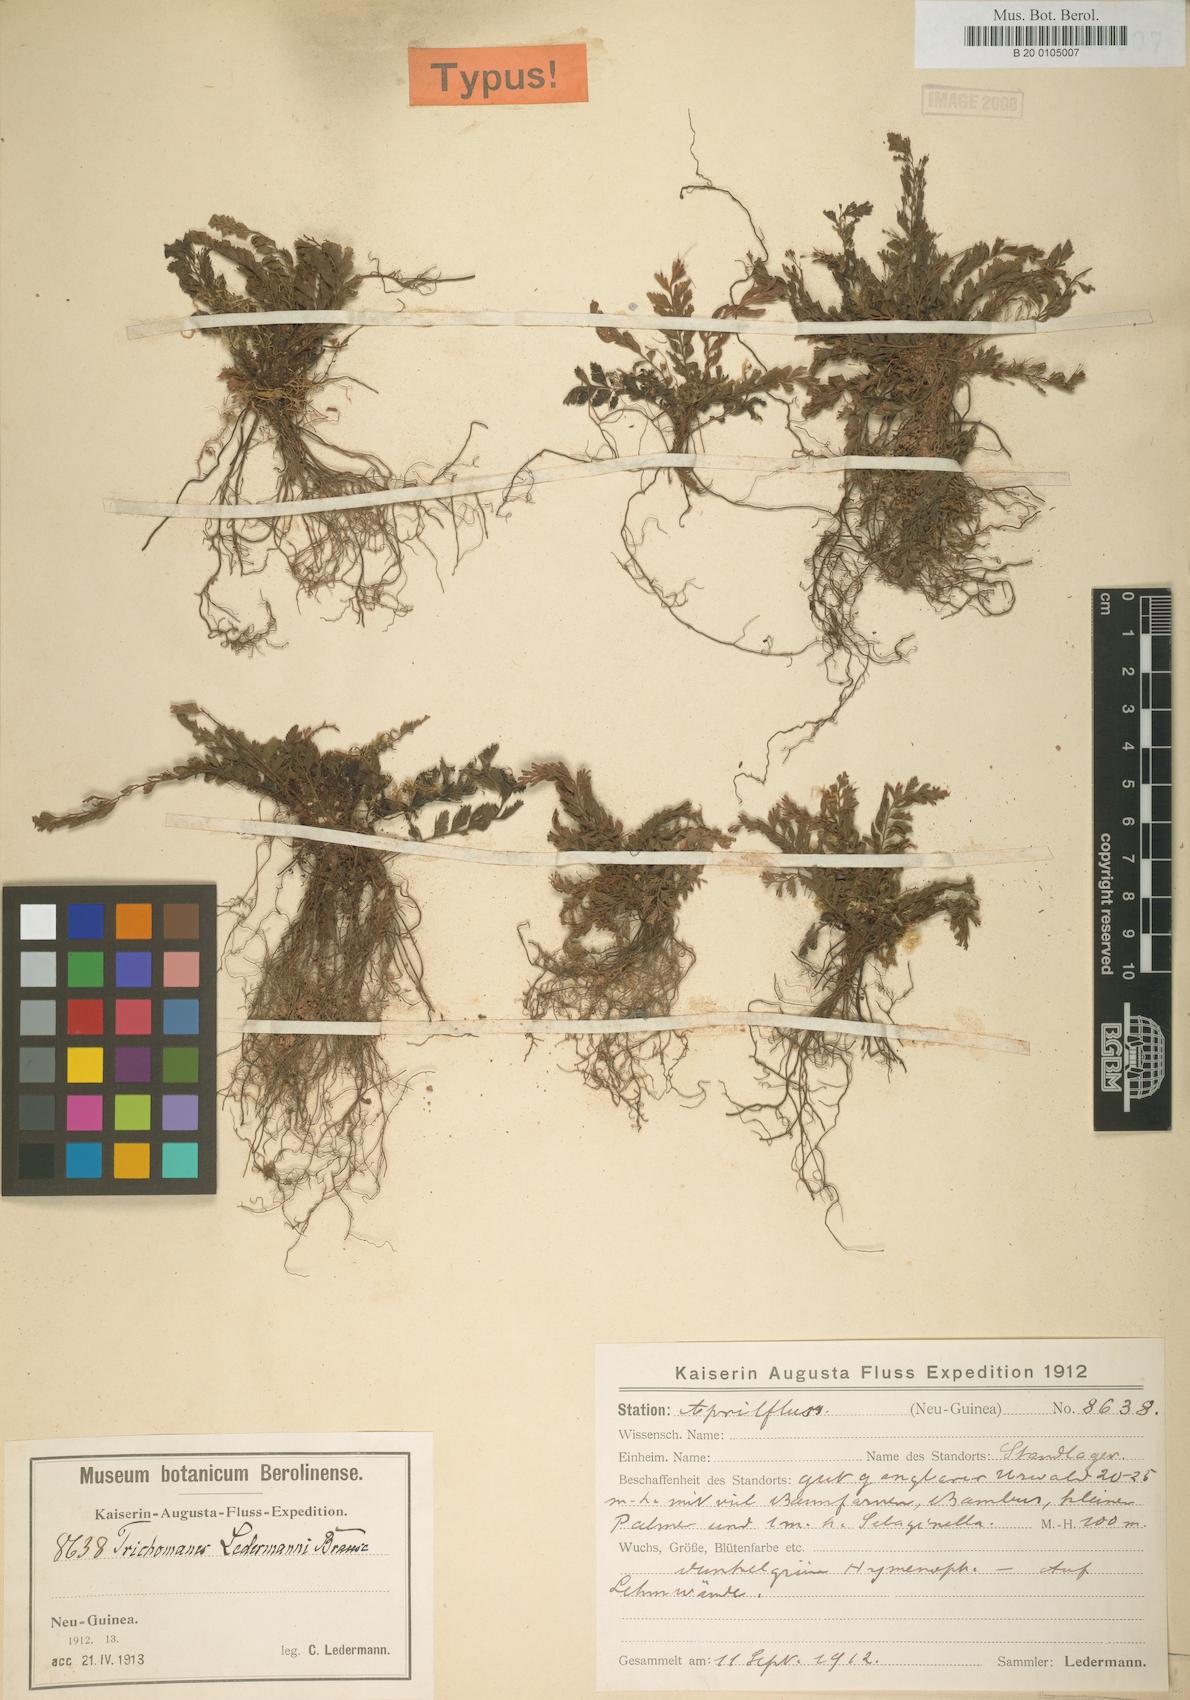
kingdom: Plantae
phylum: Tracheophyta
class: Polypodiopsida
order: Hymenophyllales
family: Hymenophyllaceae
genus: Cephalomanes
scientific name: Cephalomanes atrovirens
